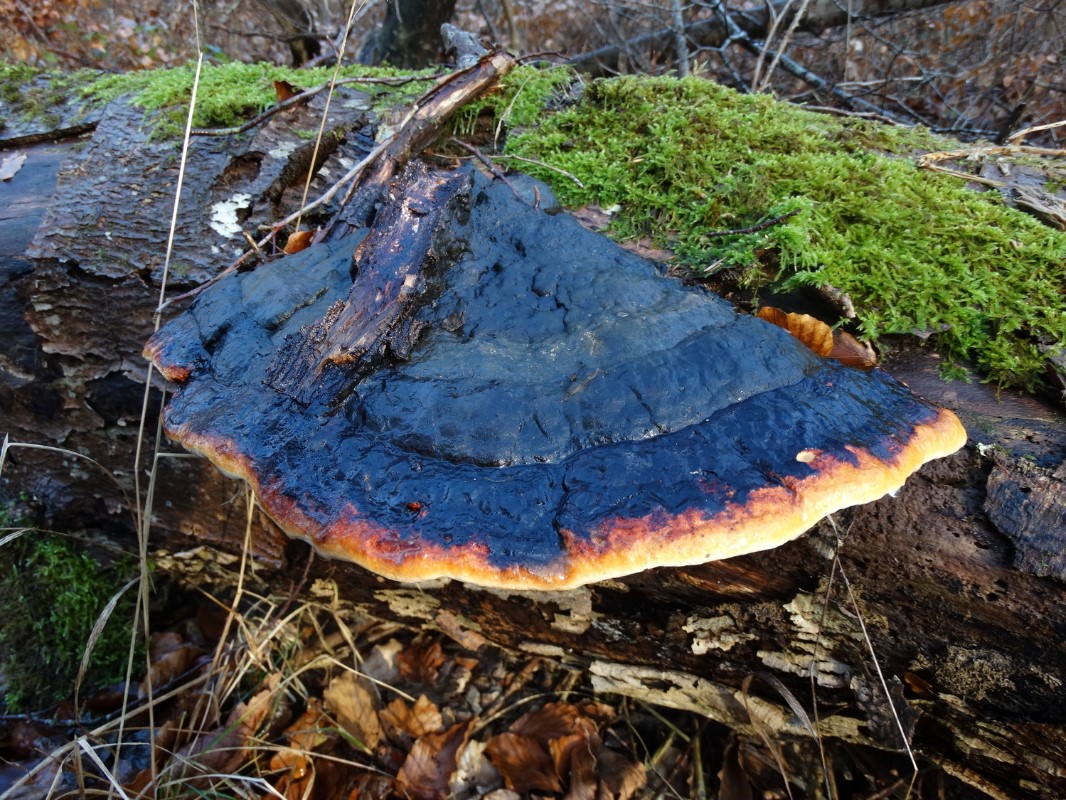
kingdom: Fungi
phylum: Basidiomycota
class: Agaricomycetes
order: Polyporales
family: Fomitopsidaceae
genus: Fomitopsis
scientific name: Fomitopsis pinicola
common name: randbæltet hovporesvamp
